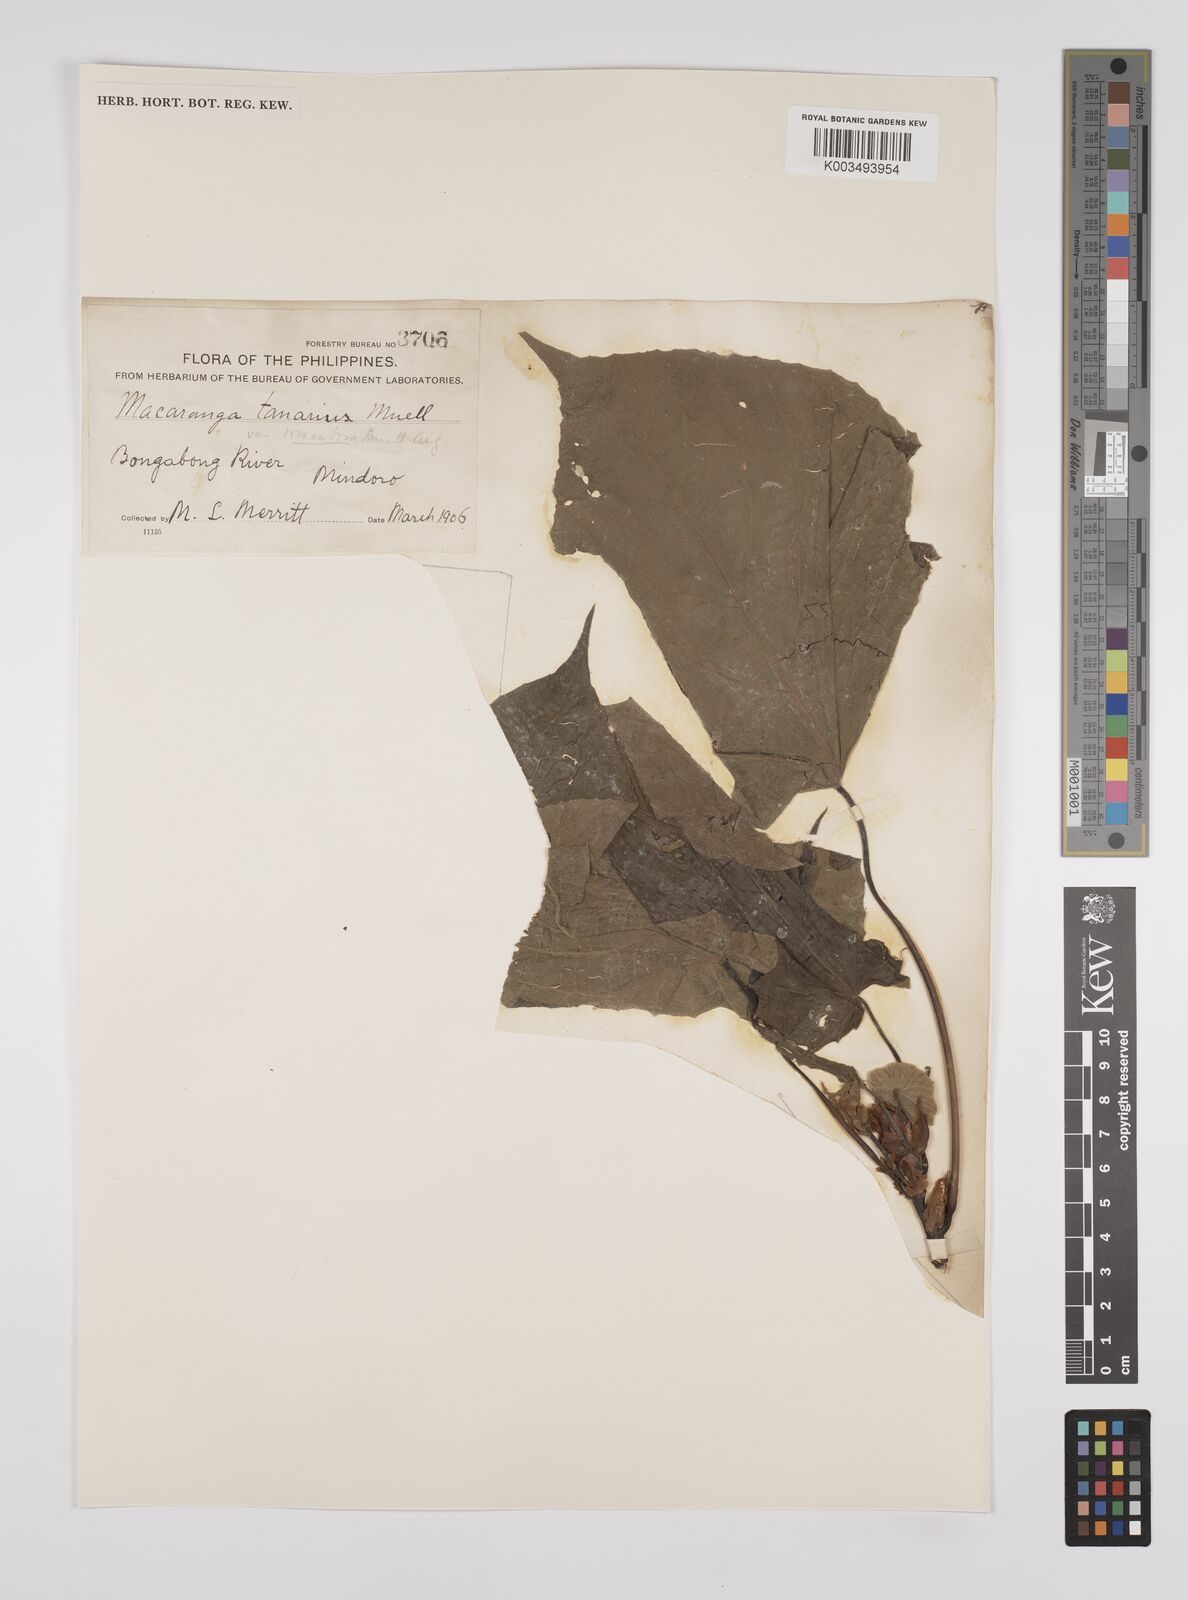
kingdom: Plantae
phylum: Tracheophyta
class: Magnoliopsida
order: Malpighiales
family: Euphorbiaceae
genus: Macaranga
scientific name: Macaranga tanarius
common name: Parasol leaf tree
